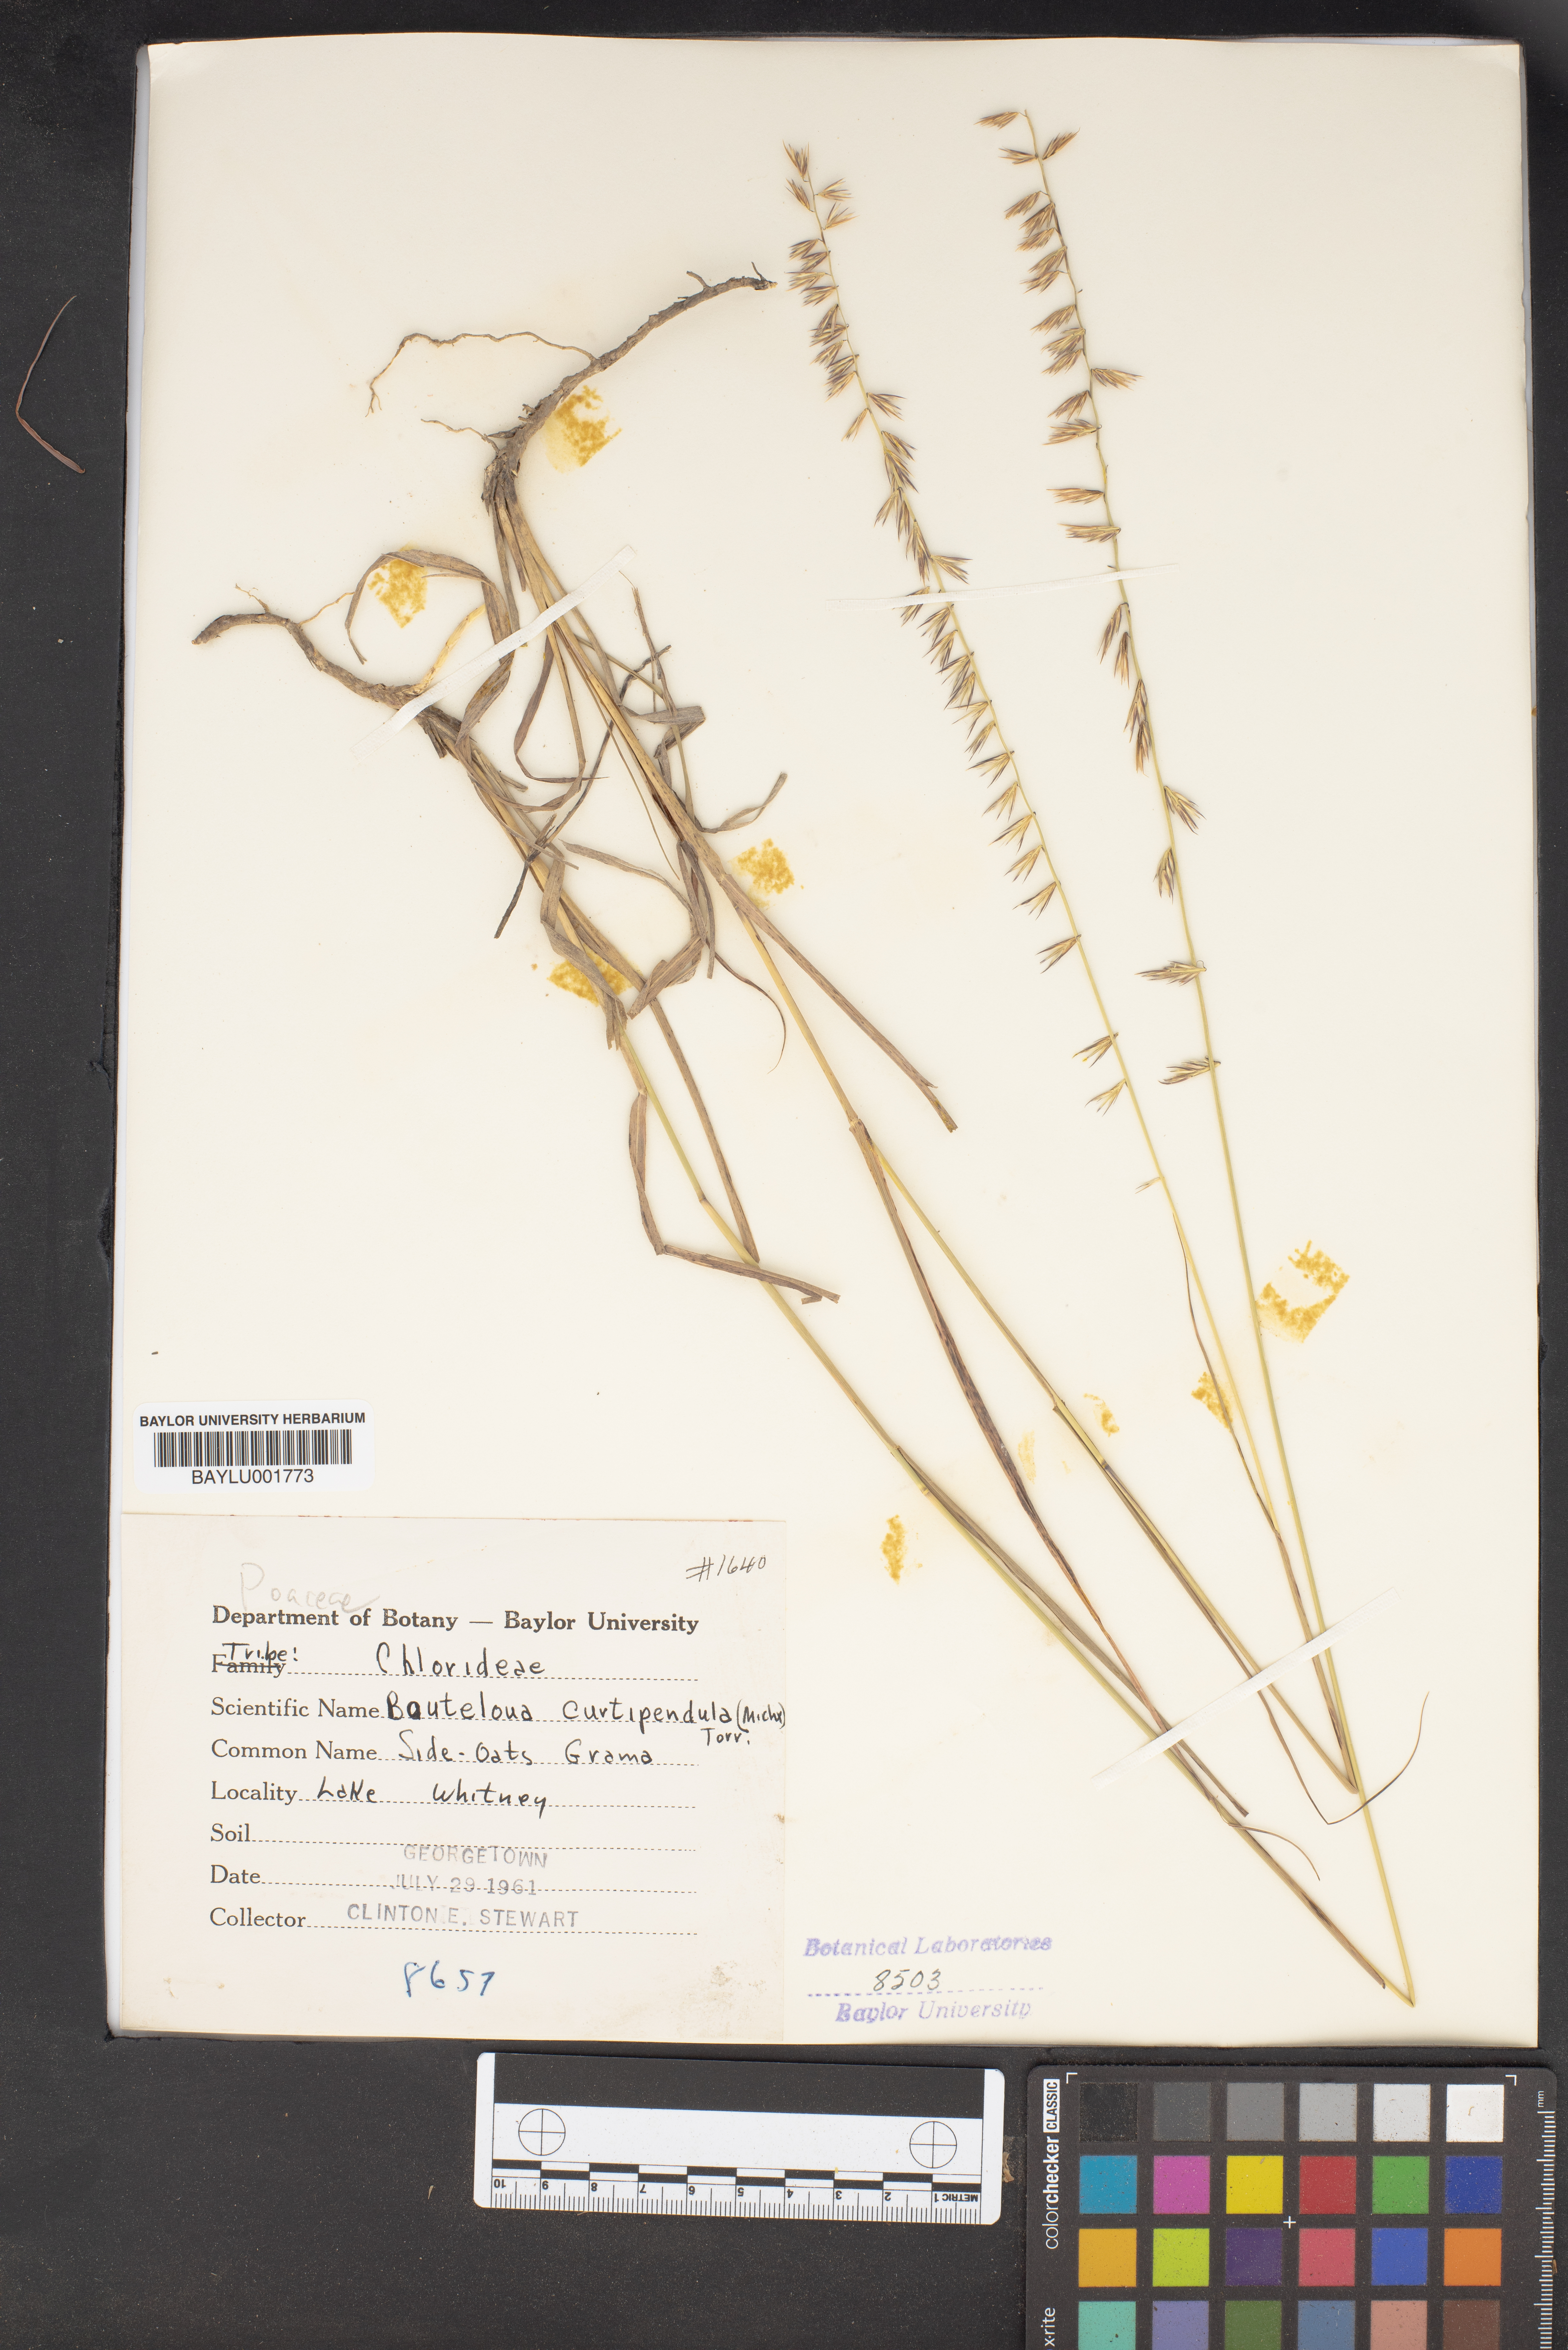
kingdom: Plantae
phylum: Tracheophyta
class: Liliopsida
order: Poales
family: Poaceae
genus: Bouteloua
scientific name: Bouteloua curtipendula
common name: Side-oats grama
